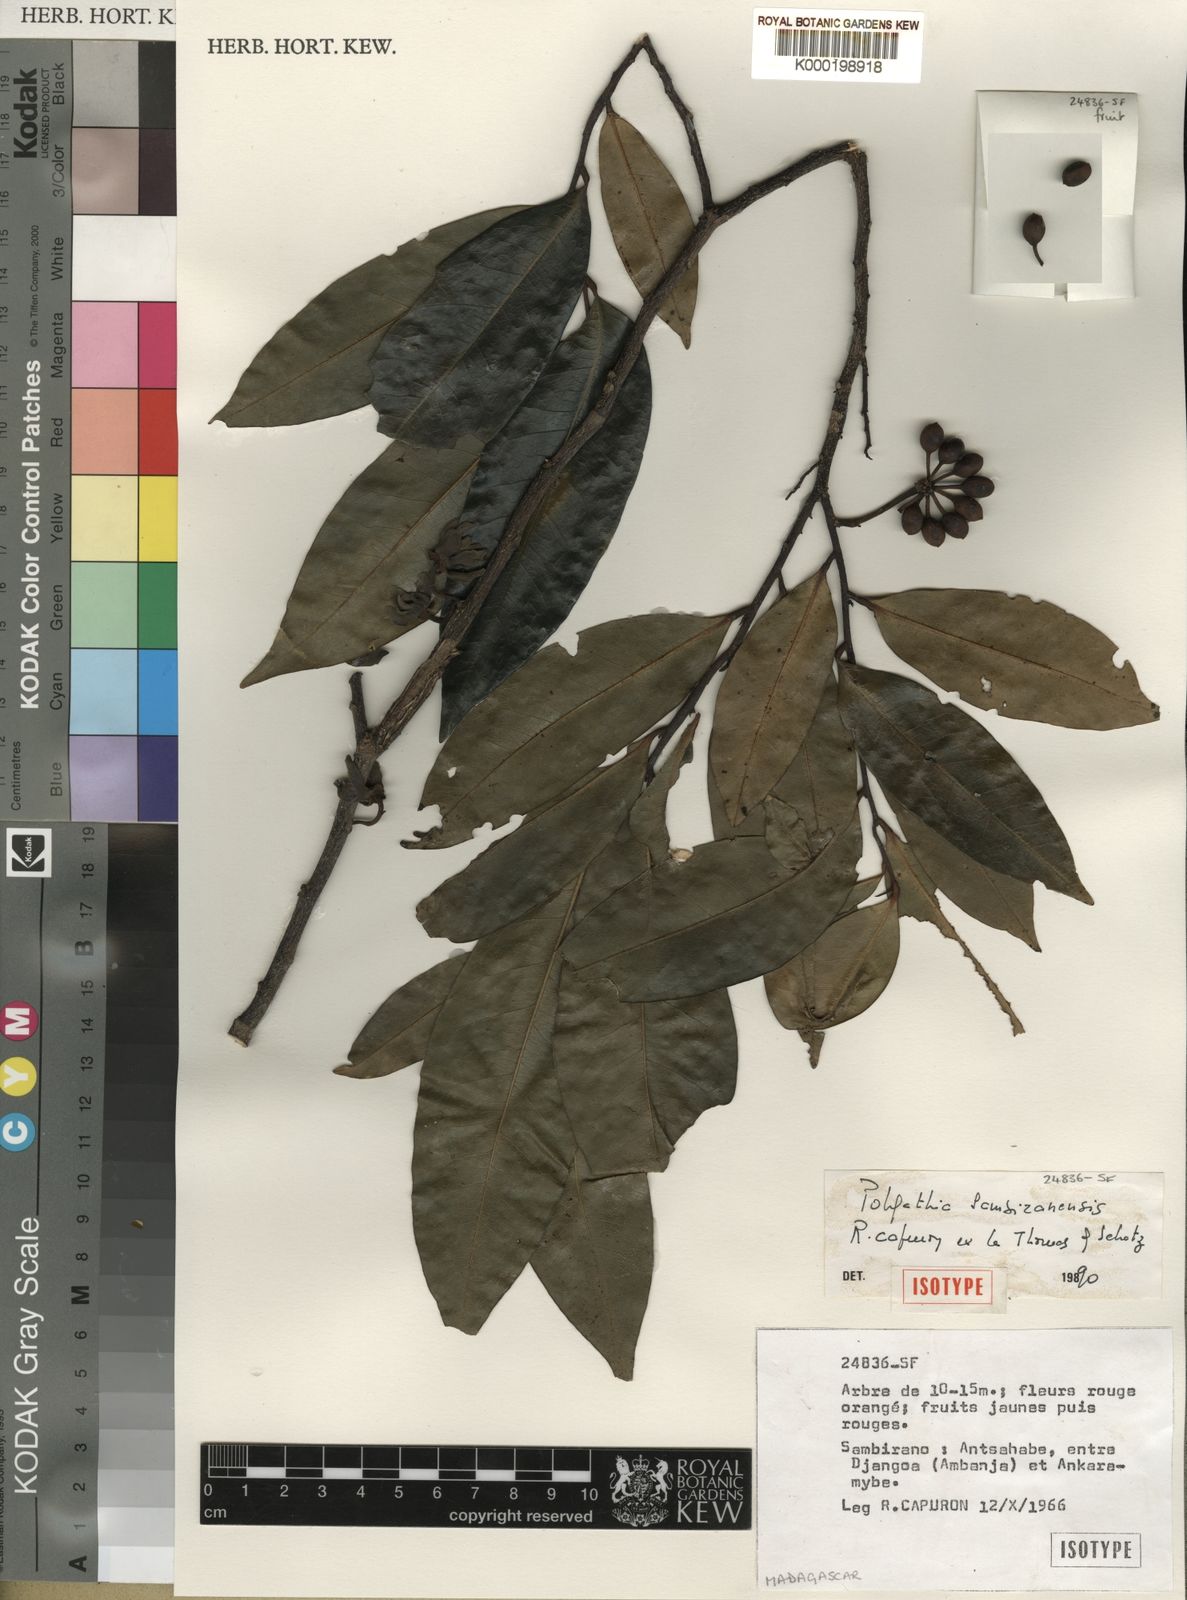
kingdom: Plantae
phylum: Tracheophyta
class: Magnoliopsida
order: Magnoliales
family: Annonaceae
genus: Hubera
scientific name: Hubera sambiranensis
